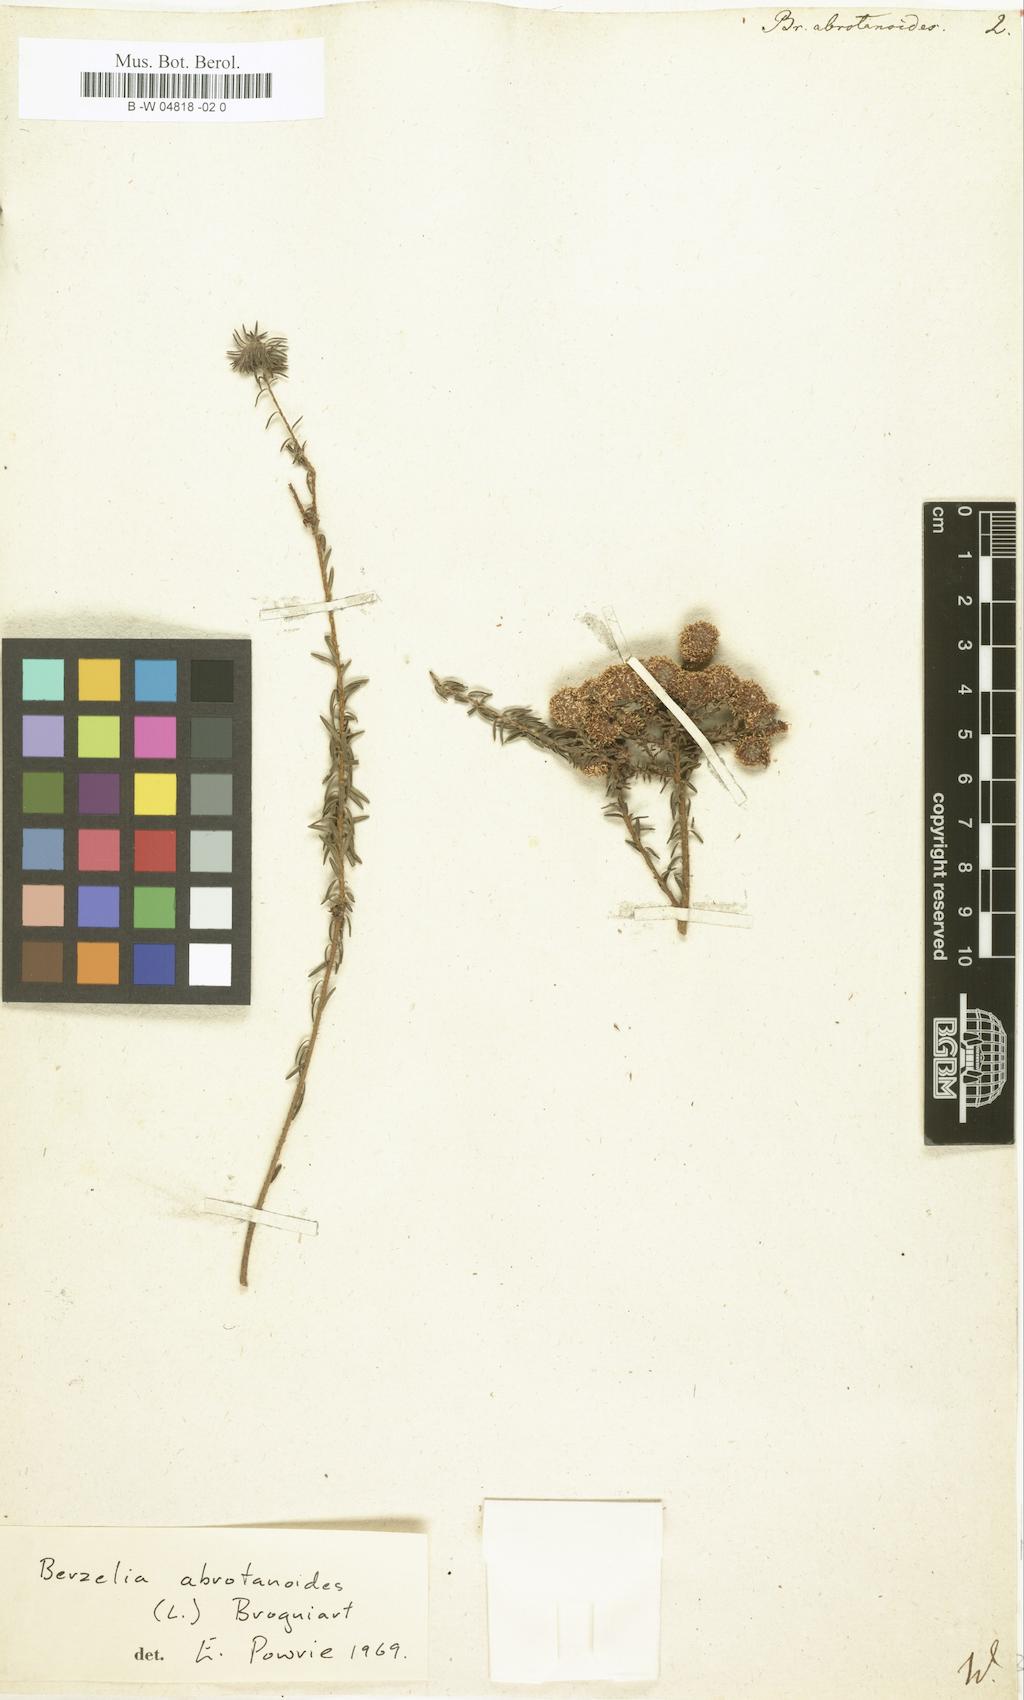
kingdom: Plantae
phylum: Tracheophyta
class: Magnoliopsida
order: Bruniales
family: Bruniaceae
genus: Berzelia
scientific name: Berzelia abrotanoides
